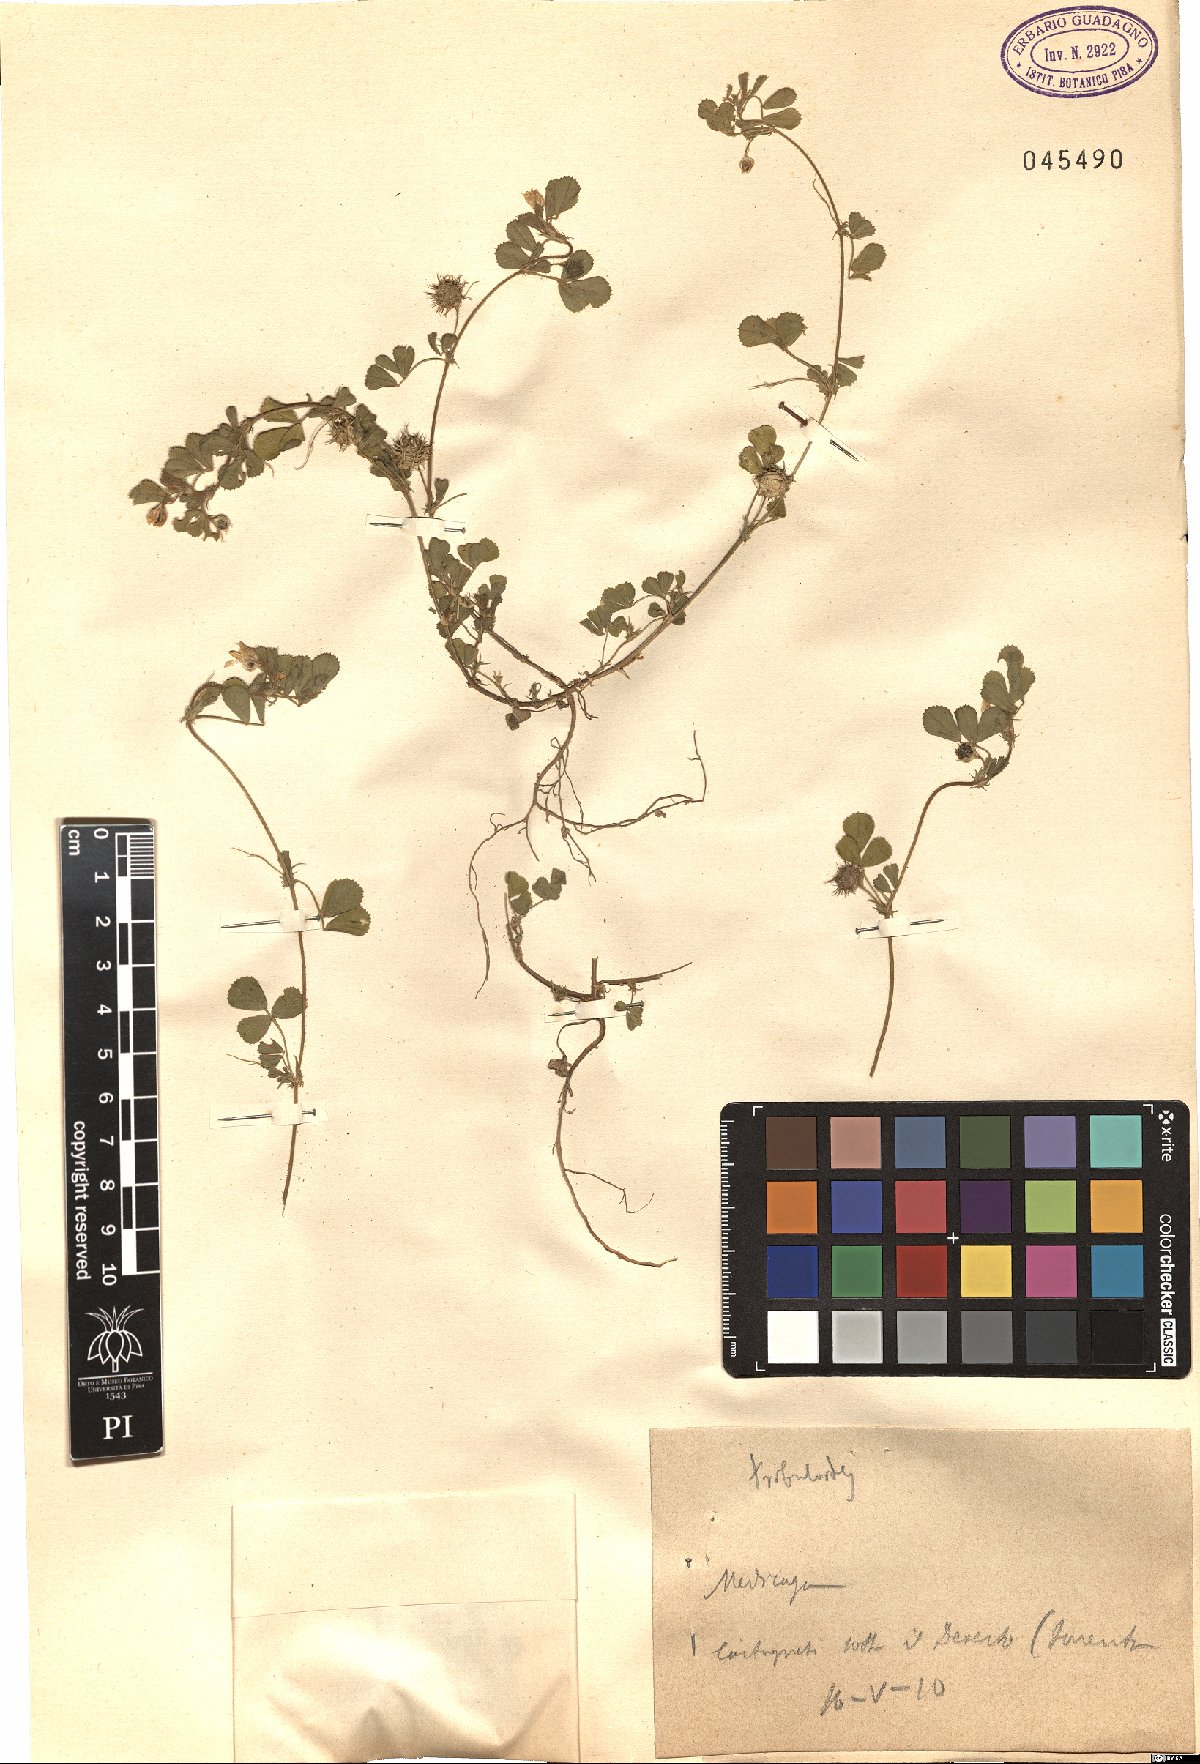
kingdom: Plantae
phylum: Tracheophyta
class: Magnoliopsida
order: Fabales
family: Fabaceae
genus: Medicago
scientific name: Medicago truncatula
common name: Strong-spined medick
